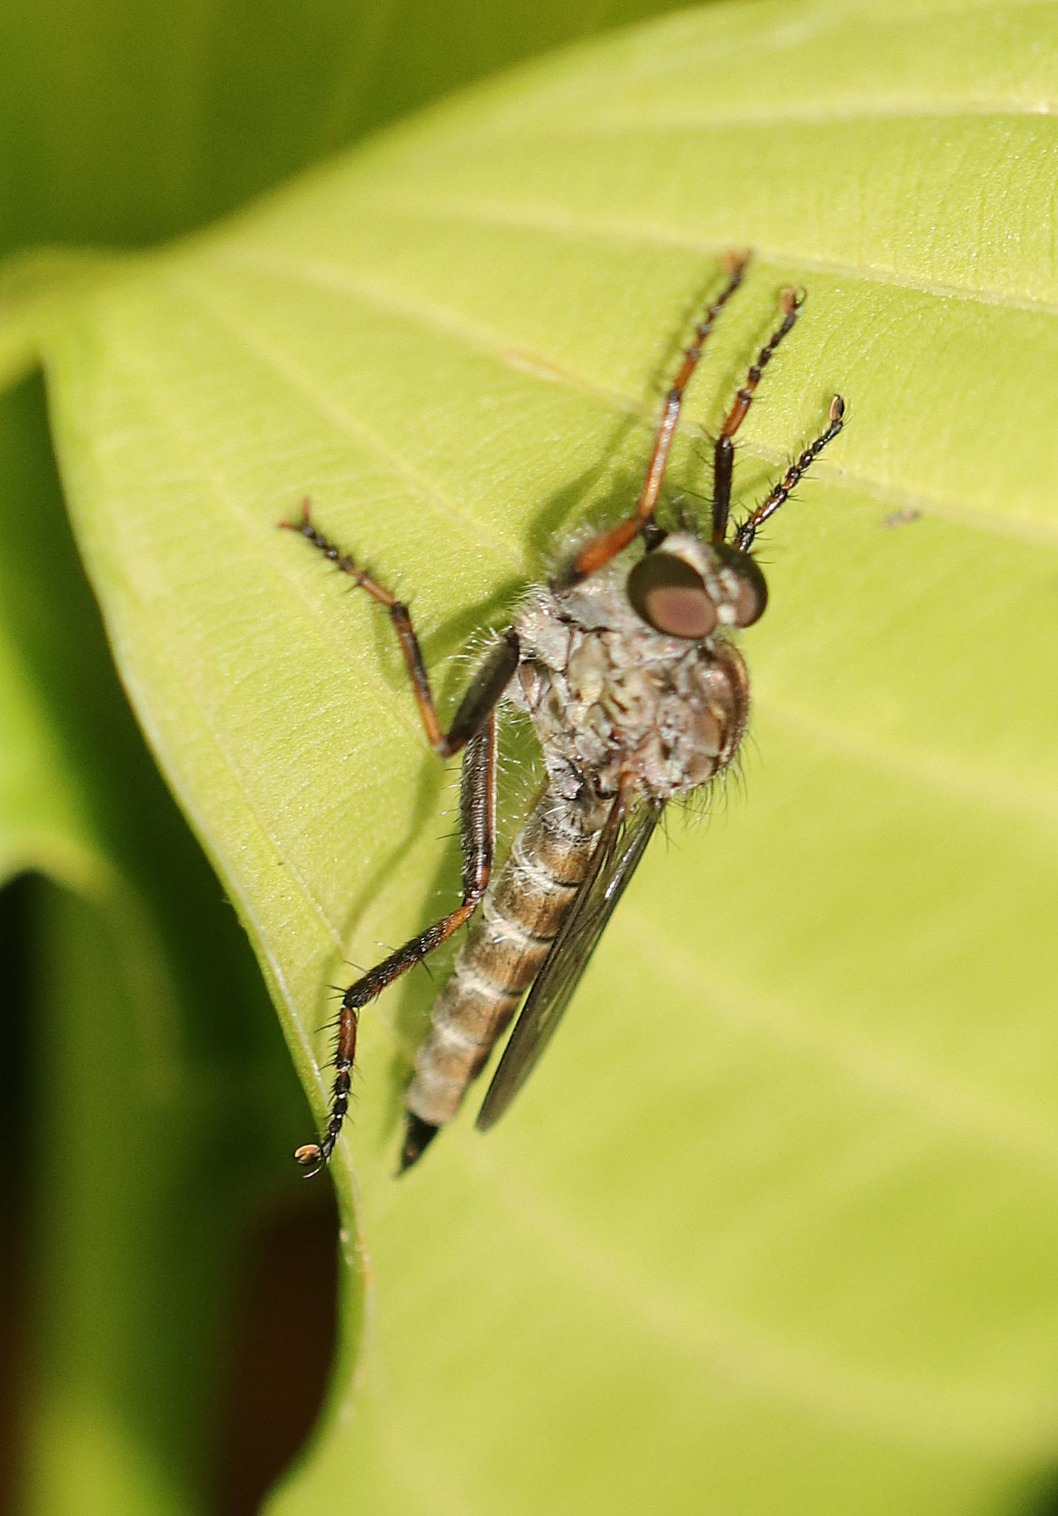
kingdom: Animalia
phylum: Arthropoda
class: Insecta
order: Diptera
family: Asilidae
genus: Machimus
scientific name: Machimus atricapillus
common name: Sort hårrovflue
